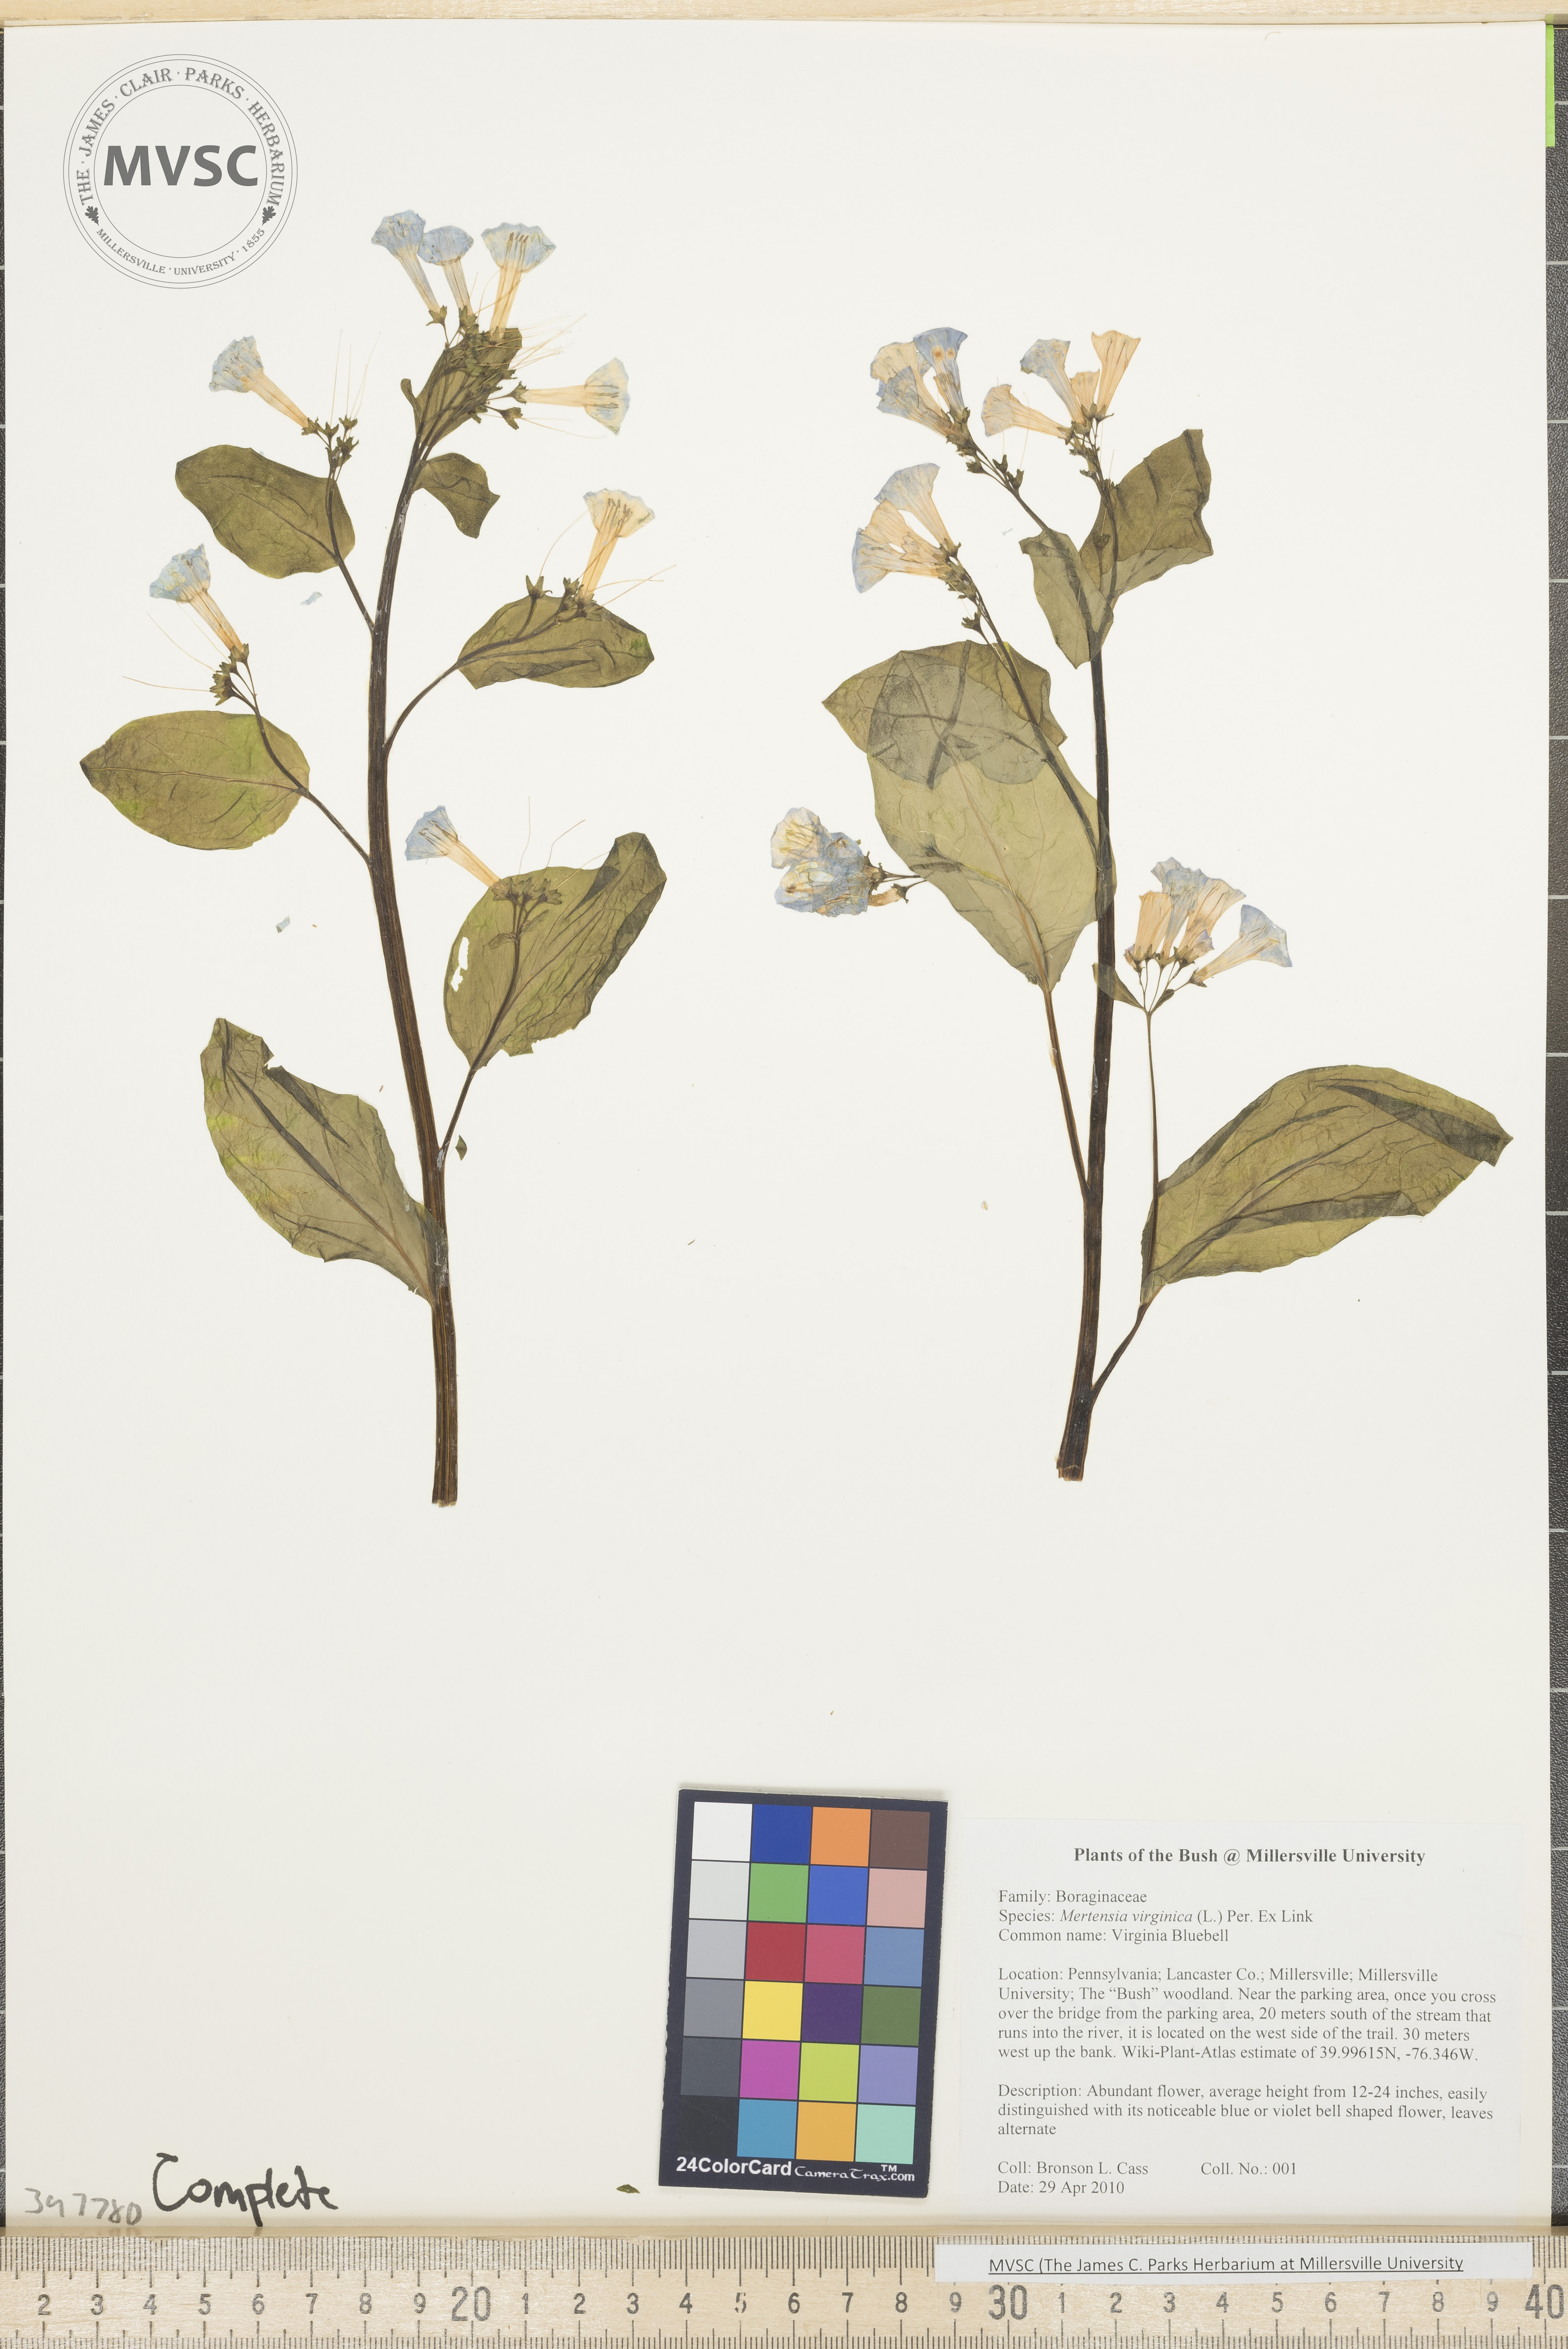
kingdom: Plantae
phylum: Tracheophyta
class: Magnoliopsida
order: Boraginales
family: Boraginaceae
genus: Mertensia
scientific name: Mertensia virginica
